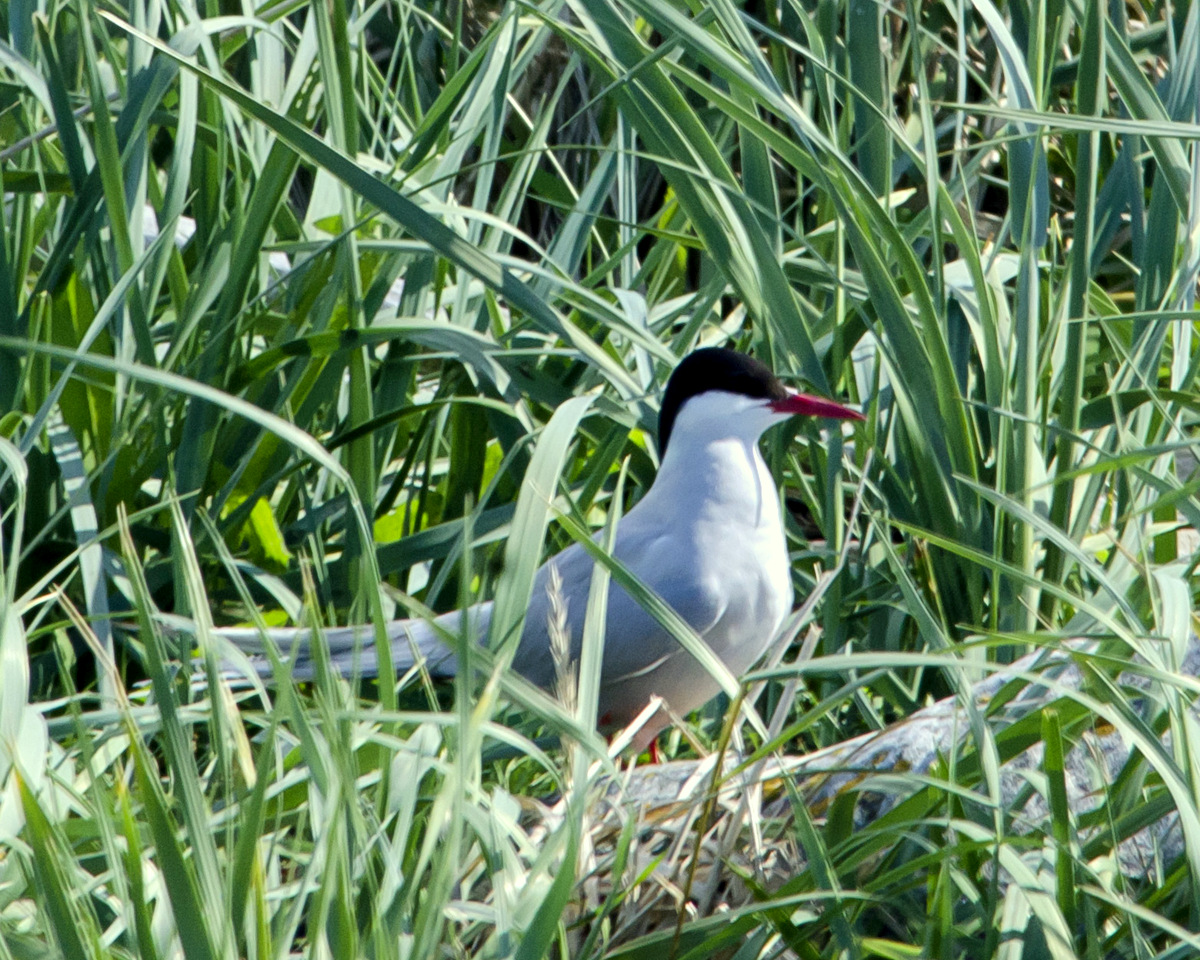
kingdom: Animalia
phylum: Chordata
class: Aves
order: Charadriiformes
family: Laridae
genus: Sterna
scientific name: Sterna paradisaea
